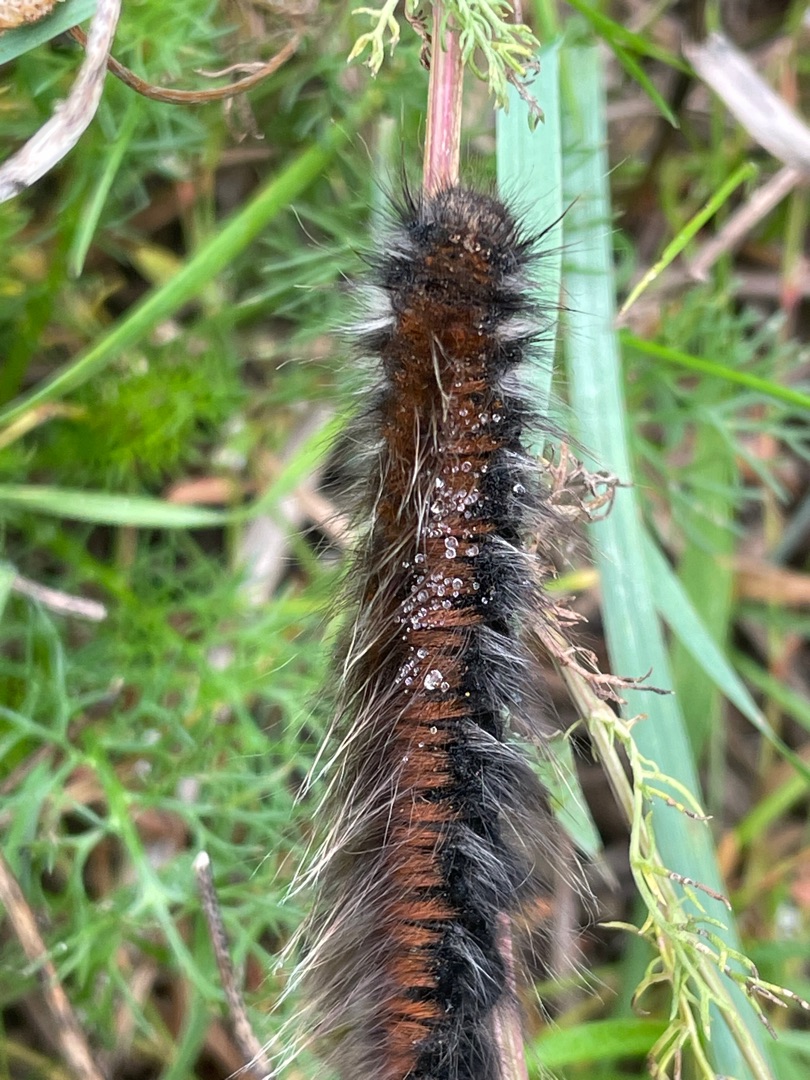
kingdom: Animalia
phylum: Arthropoda
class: Insecta
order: Lepidoptera
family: Lasiocampidae
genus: Macrothylacia
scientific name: Macrothylacia rubi
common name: Brombærspinder
